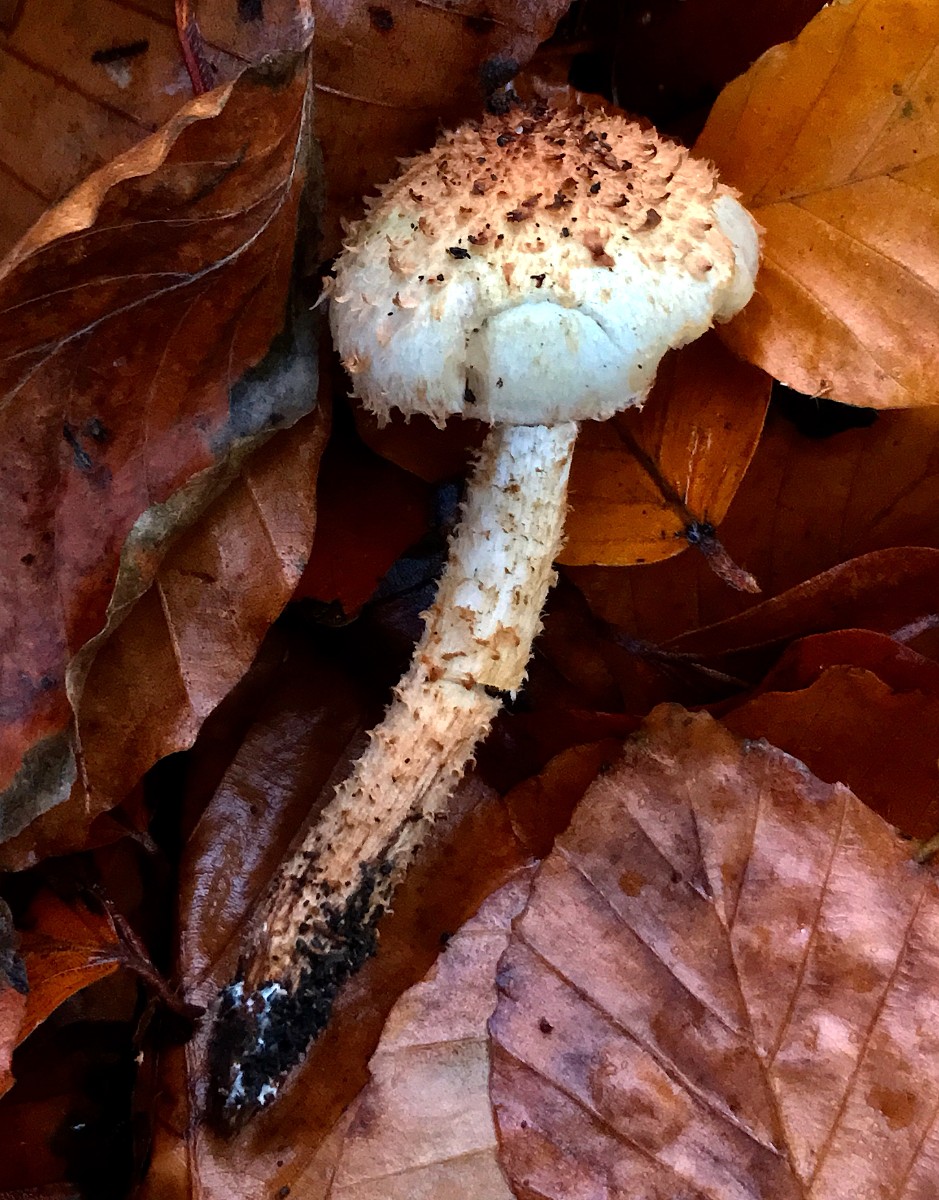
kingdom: Fungi
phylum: Basidiomycota
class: Agaricomycetes
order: Agaricales
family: Strophariaceae
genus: Pholiota
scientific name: Pholiota squarrosa
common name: krumskællet skælhat
